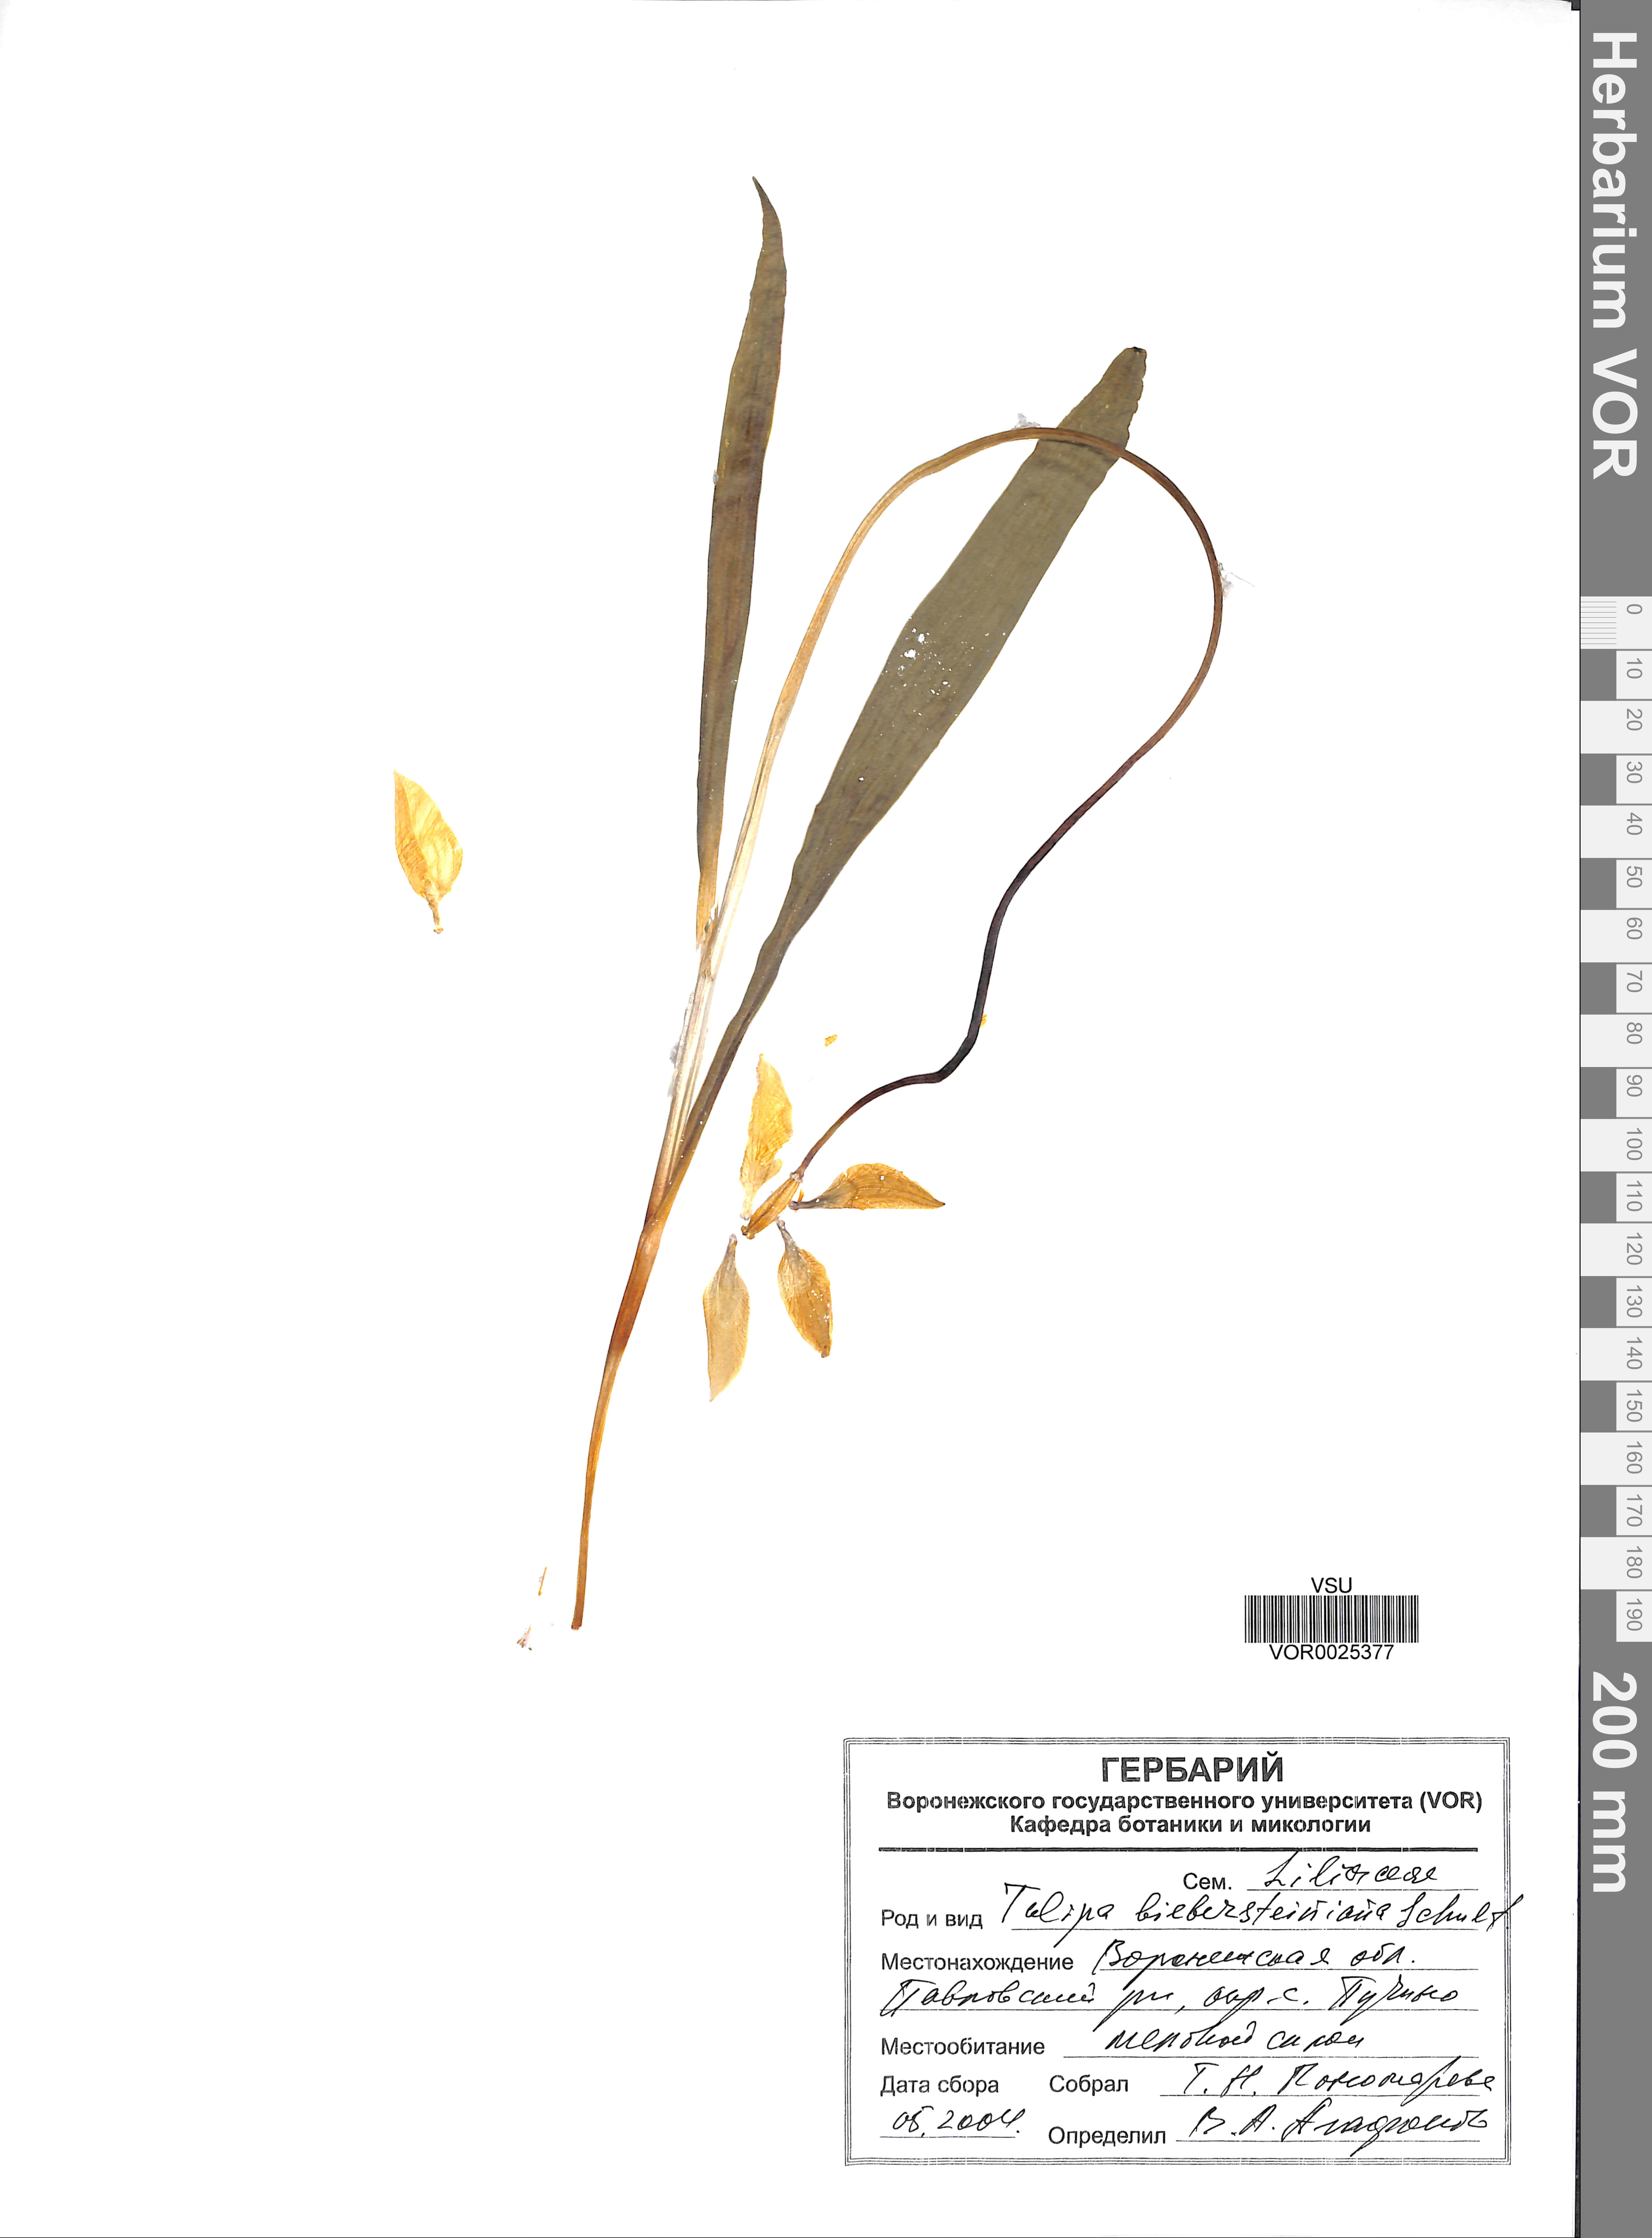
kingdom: Plantae
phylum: Tracheophyta
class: Liliopsida
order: Liliales
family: Liliaceae
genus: Tulipa
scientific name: Tulipa sylvestris
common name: Wild tulip
